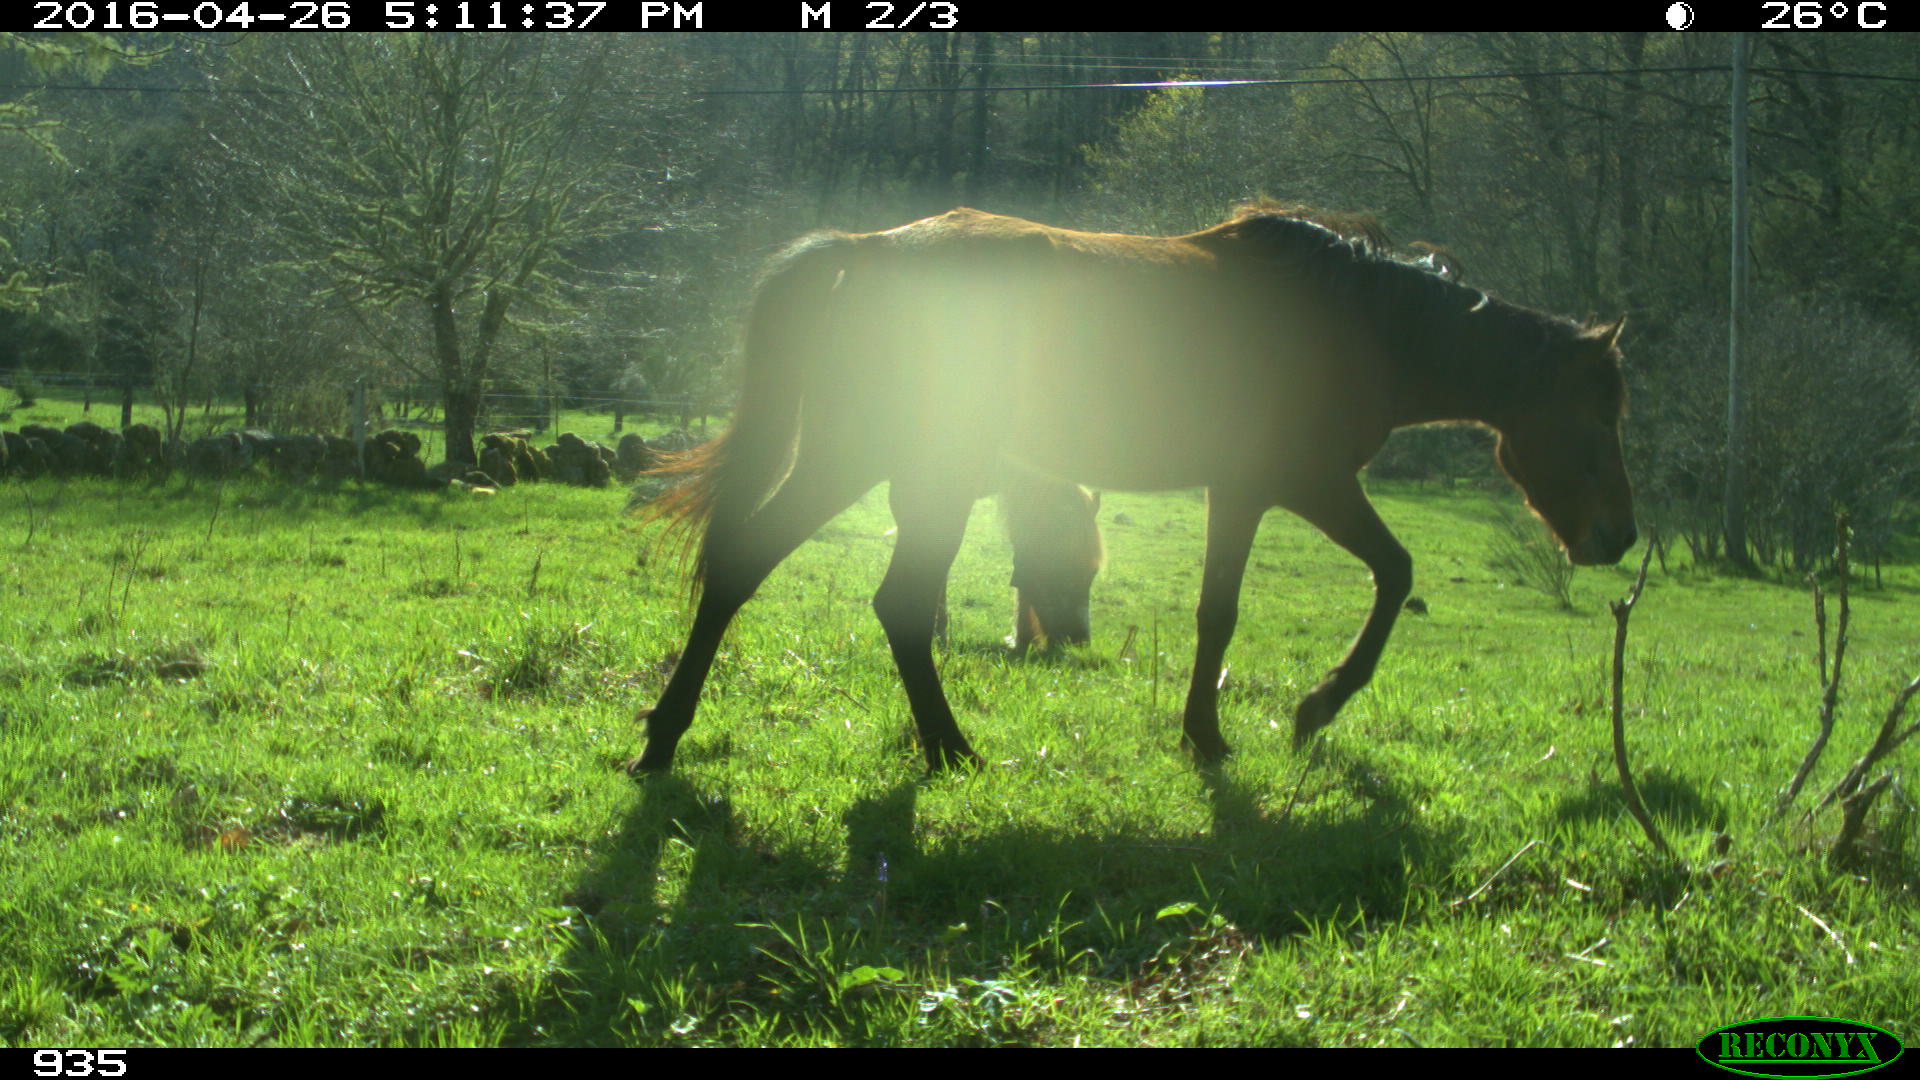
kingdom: Animalia
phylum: Chordata
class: Mammalia
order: Perissodactyla
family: Equidae
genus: Equus
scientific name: Equus caballus
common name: Horse
